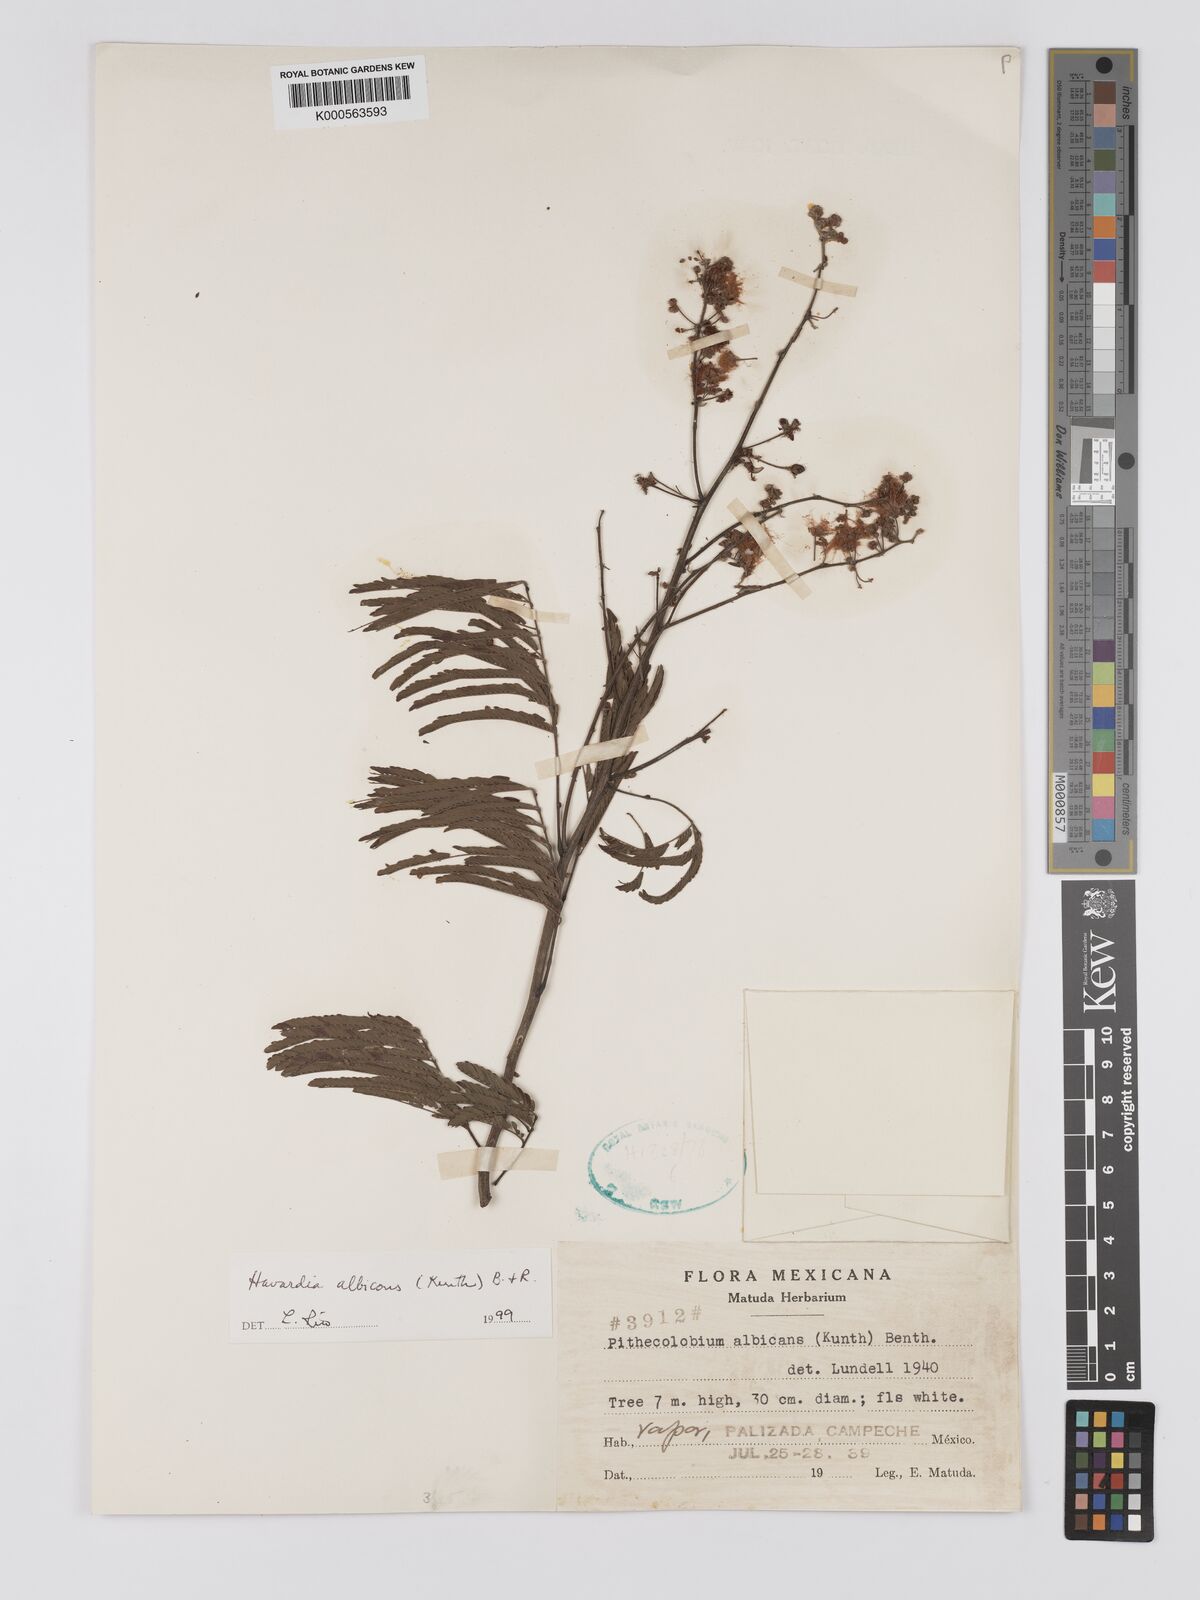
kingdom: Plantae
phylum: Tracheophyta
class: Magnoliopsida
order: Fabales
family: Fabaceae
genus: Havardia
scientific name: Havardia albicans
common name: Huisache
